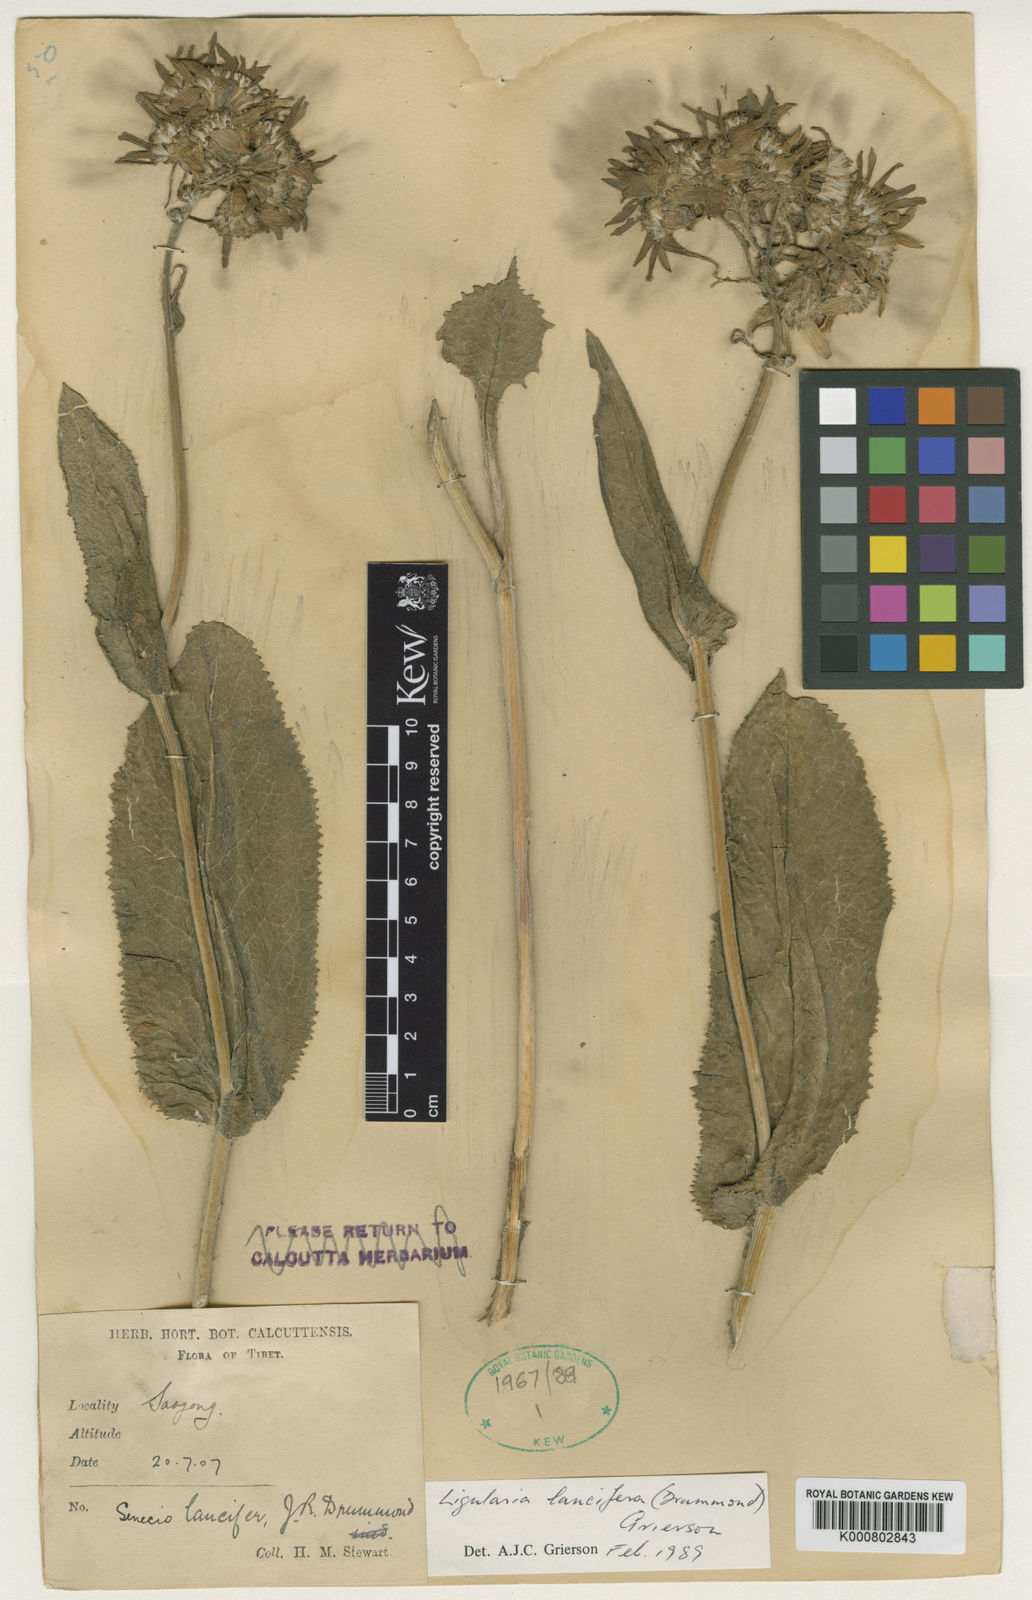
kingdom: Plantae
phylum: Tracheophyta
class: Magnoliopsida
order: Asterales
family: Asteraceae
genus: Ligularia
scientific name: Ligularia
